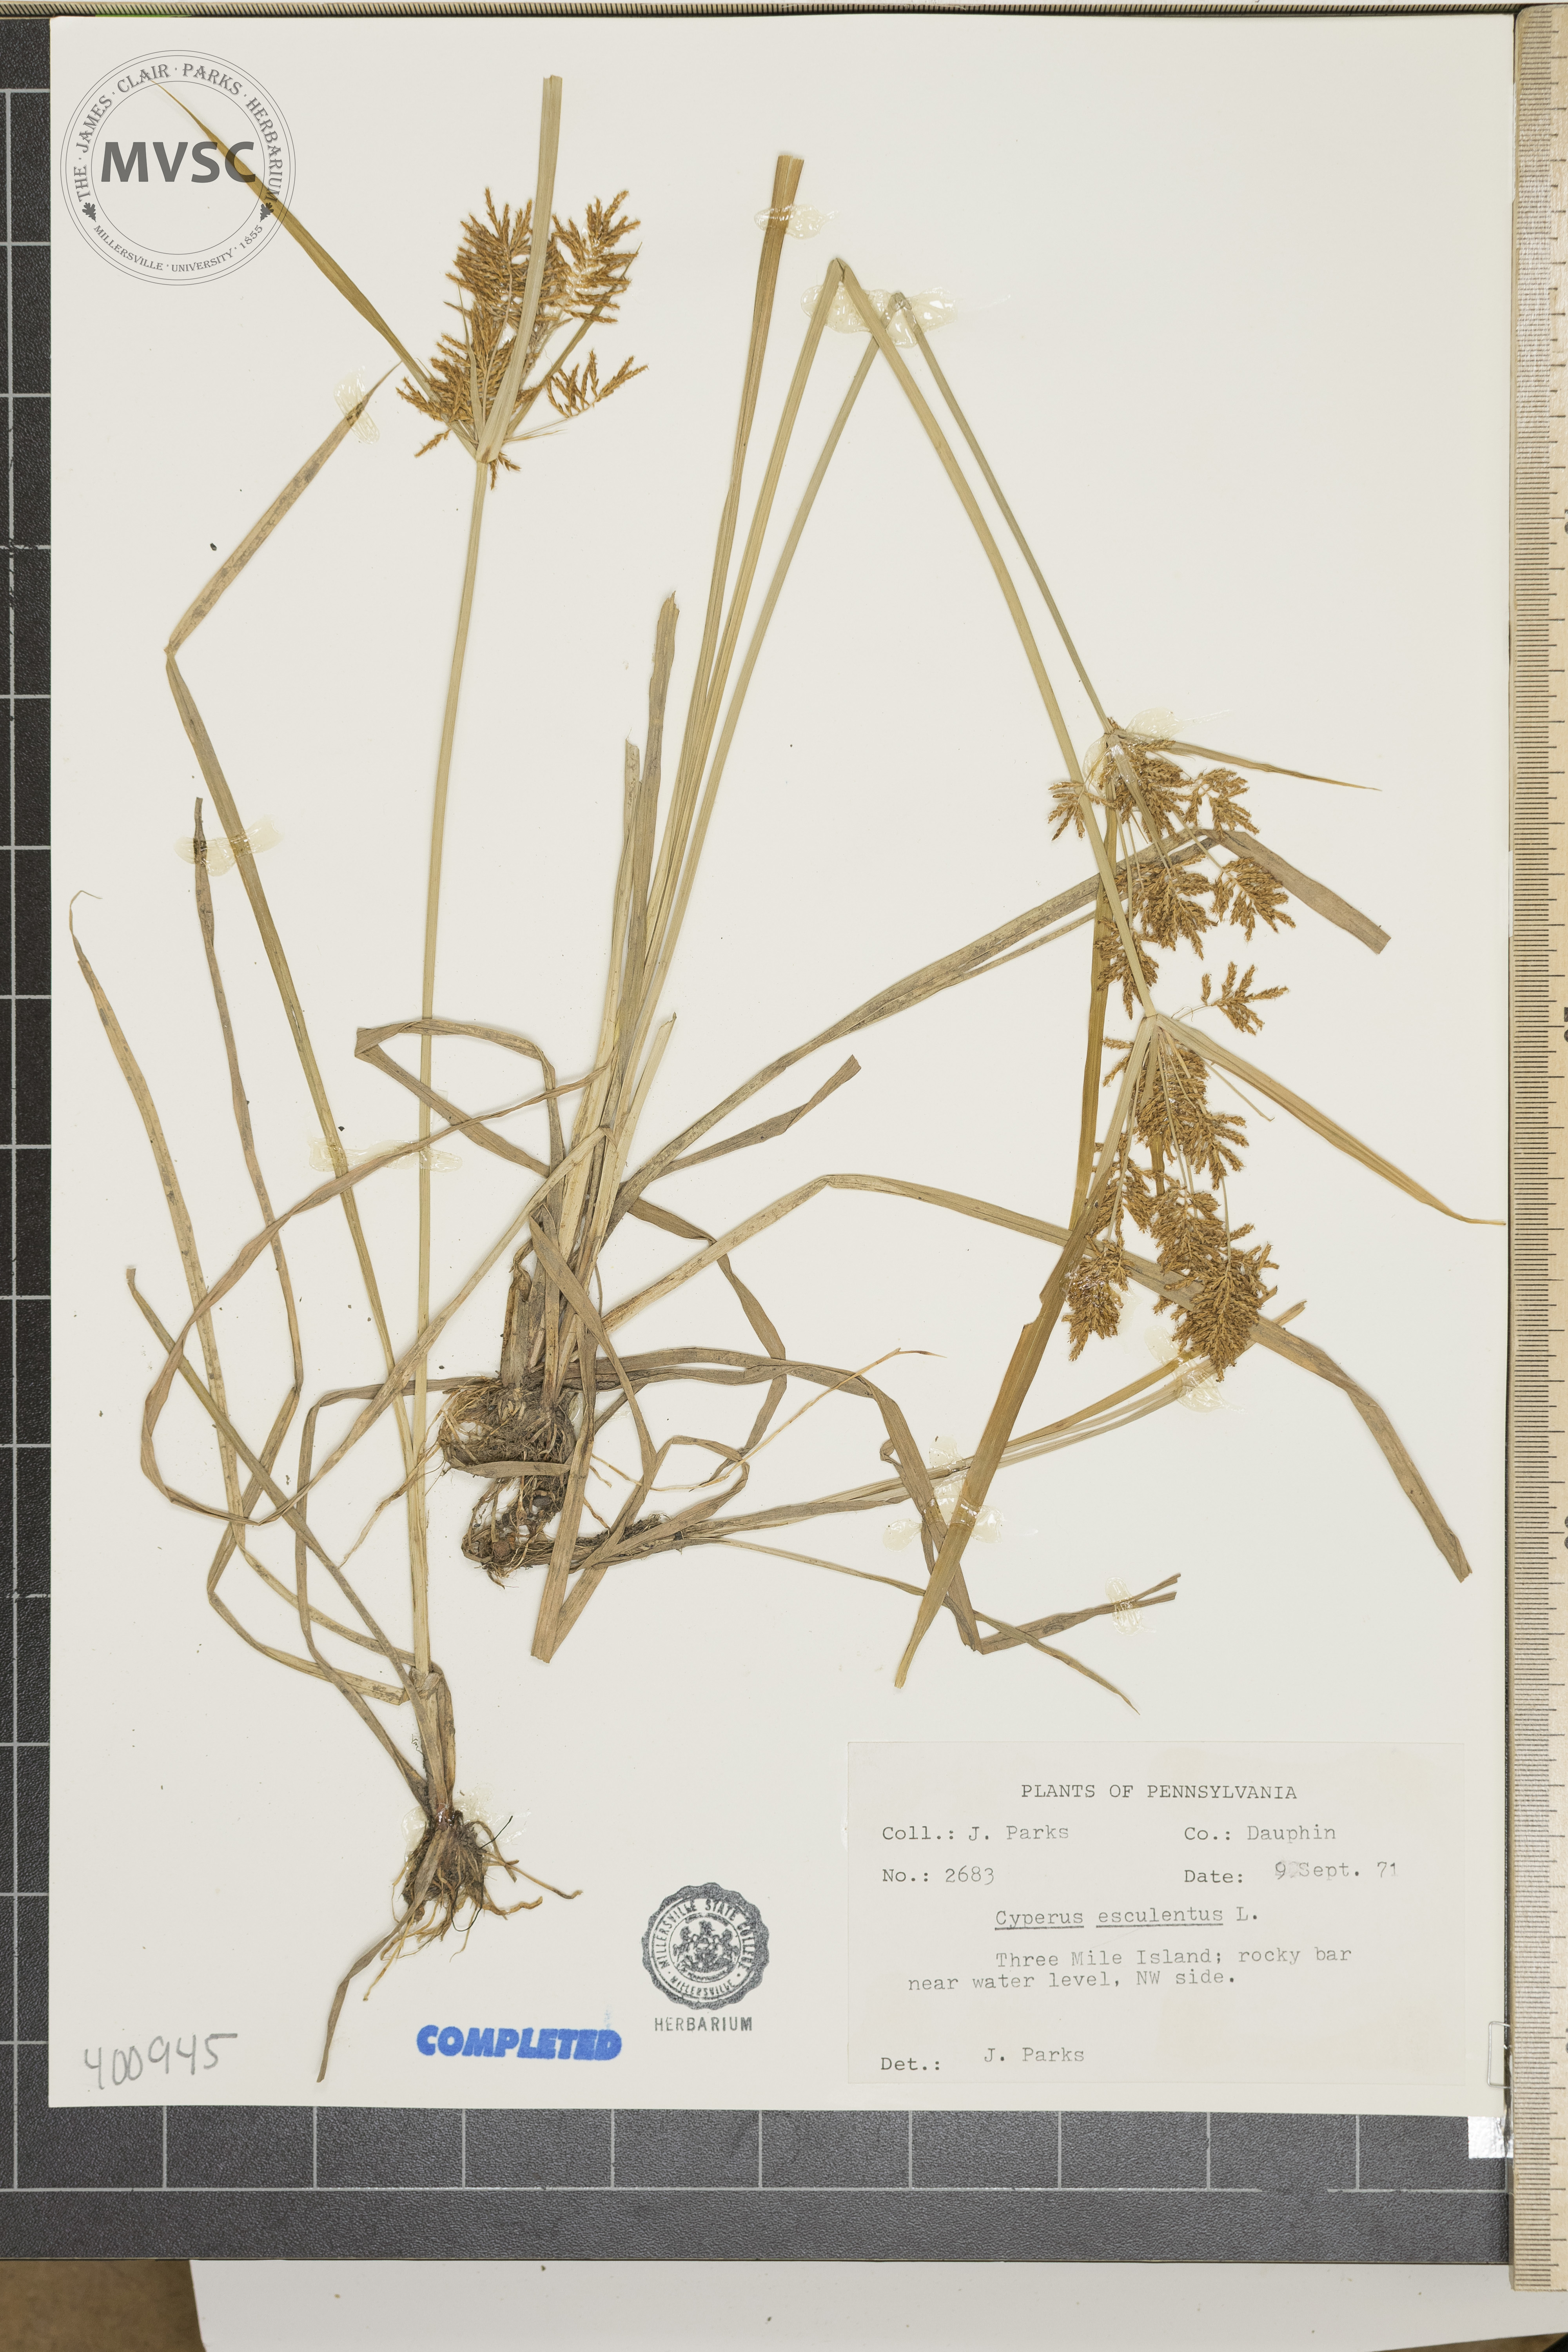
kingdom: Plantae
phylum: Tracheophyta
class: Liliopsida
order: Poales
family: Cyperaceae
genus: Cyperus
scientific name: Cyperus esculentus
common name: sedge
